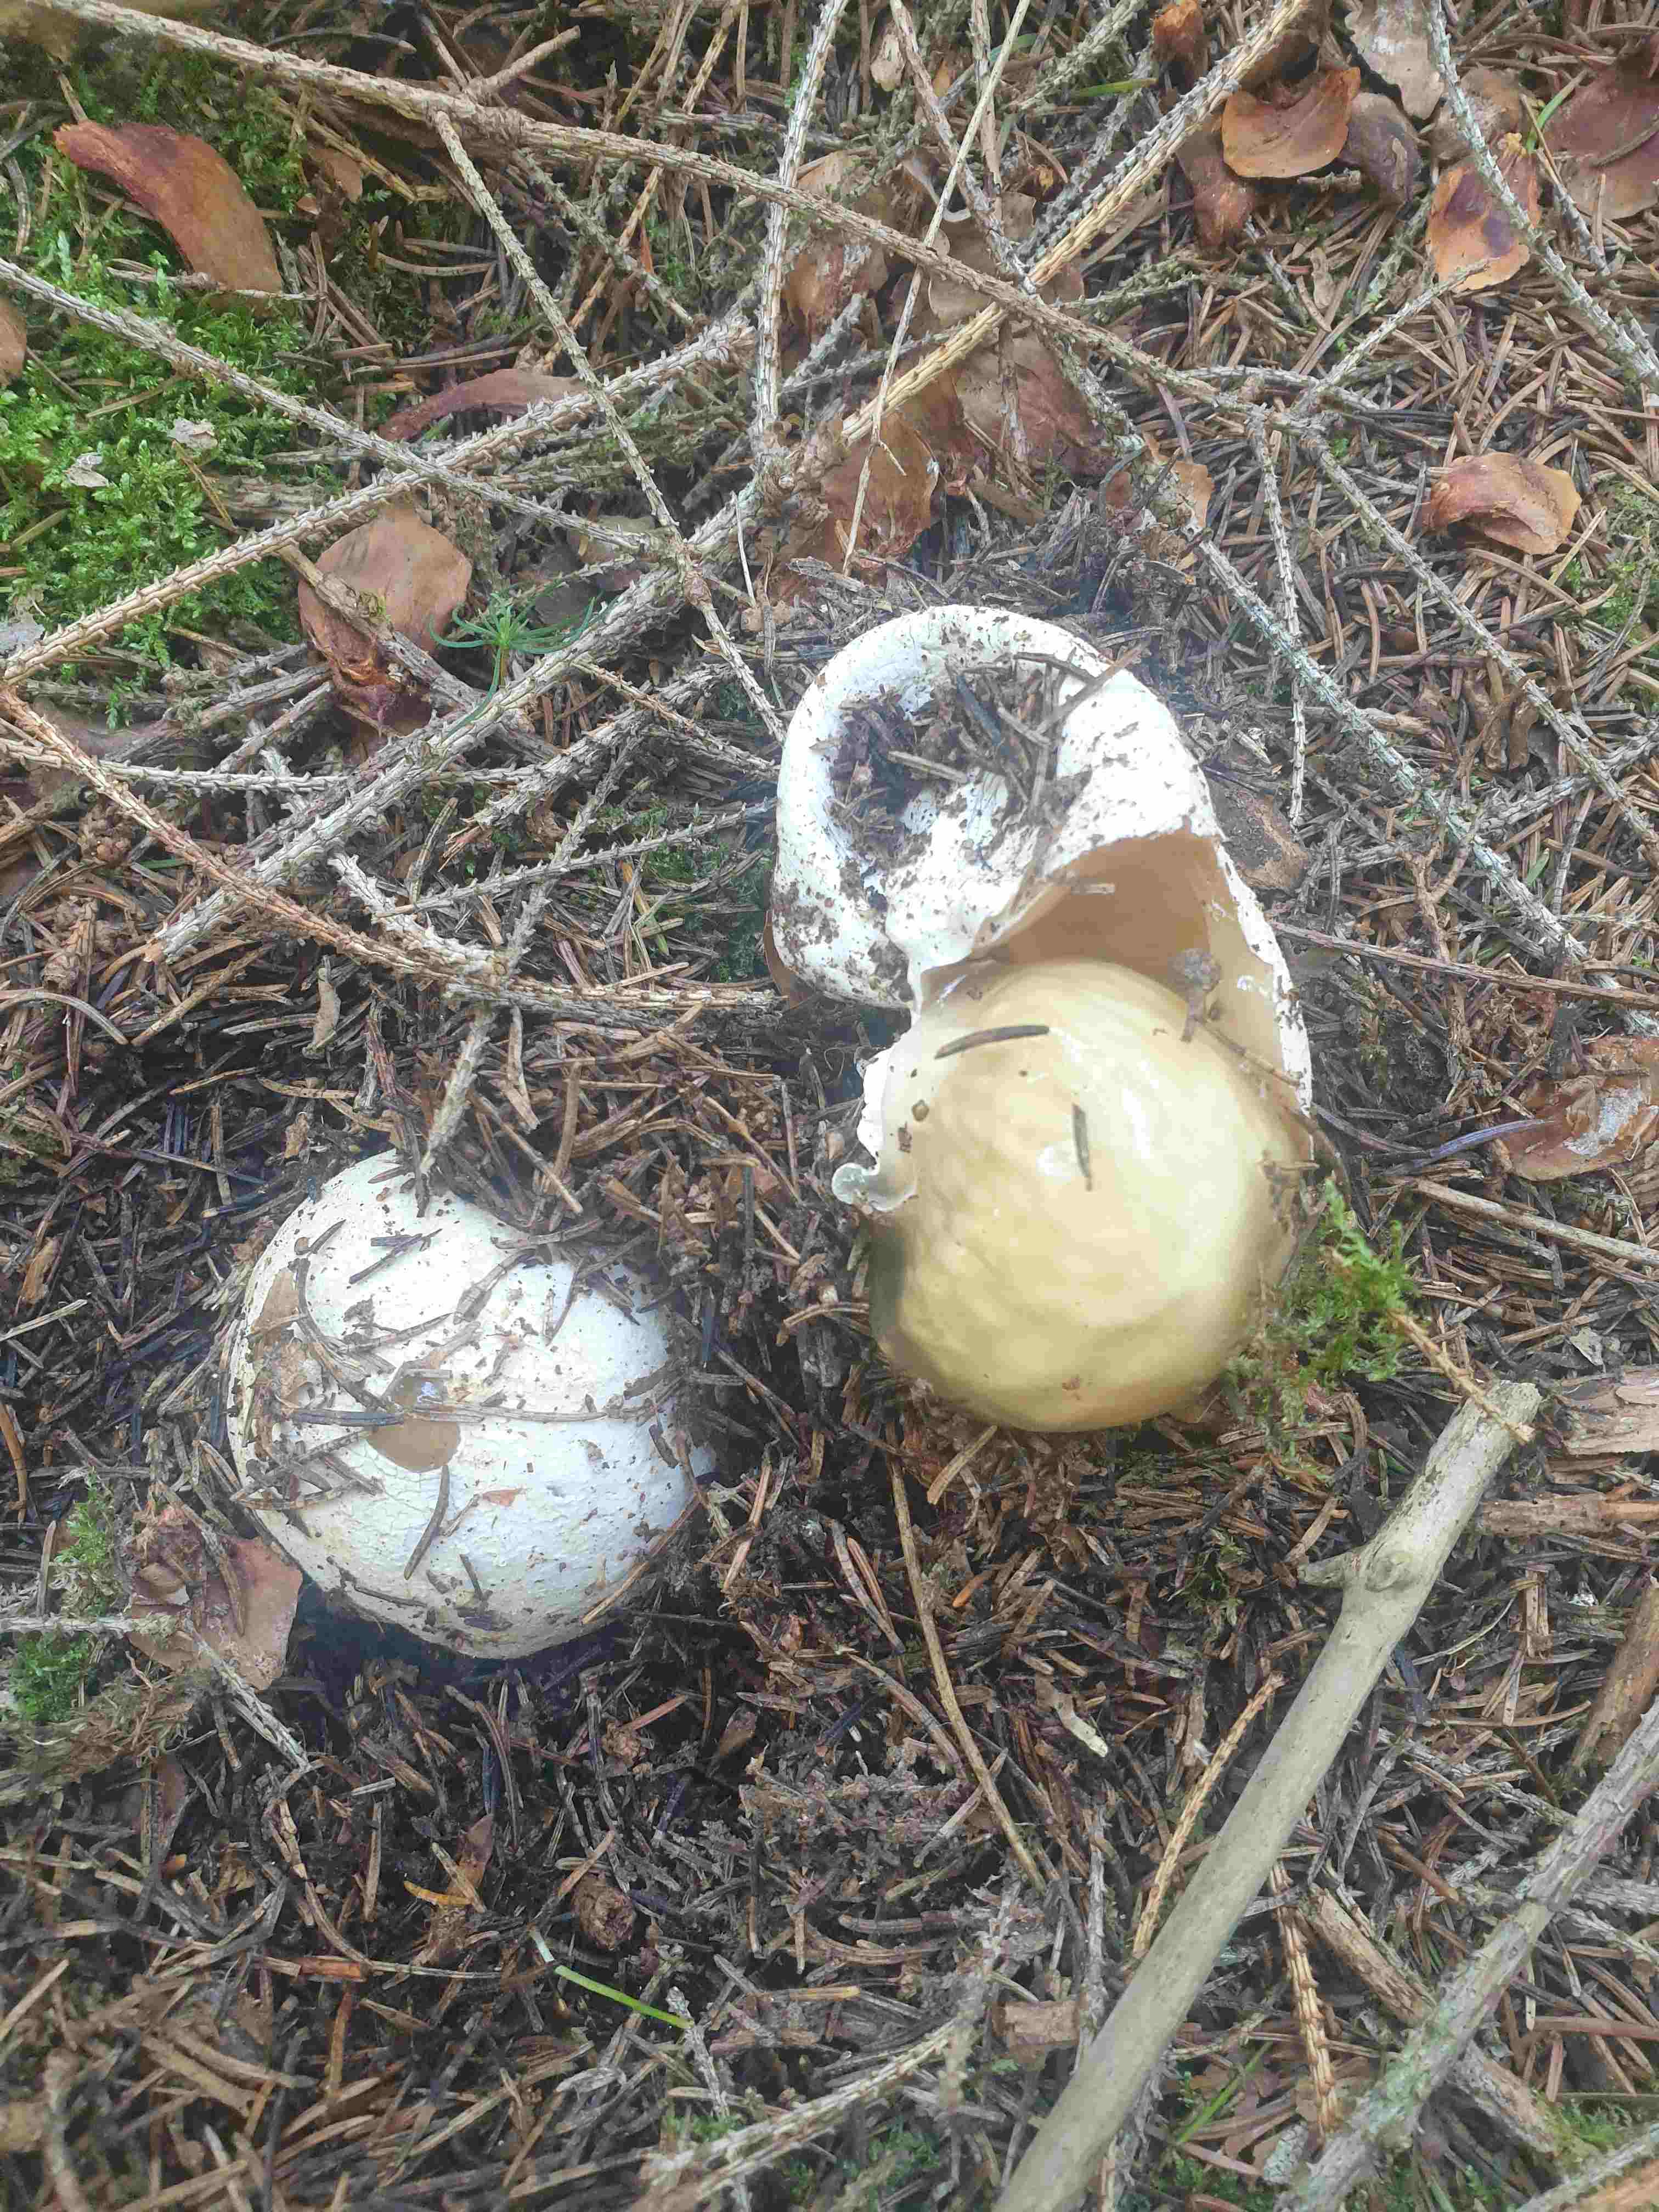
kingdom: Fungi
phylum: Basidiomycota
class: Agaricomycetes
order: Phallales
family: Phallaceae
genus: Phallus
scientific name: Phallus impudicus
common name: almindelig stinksvamp
